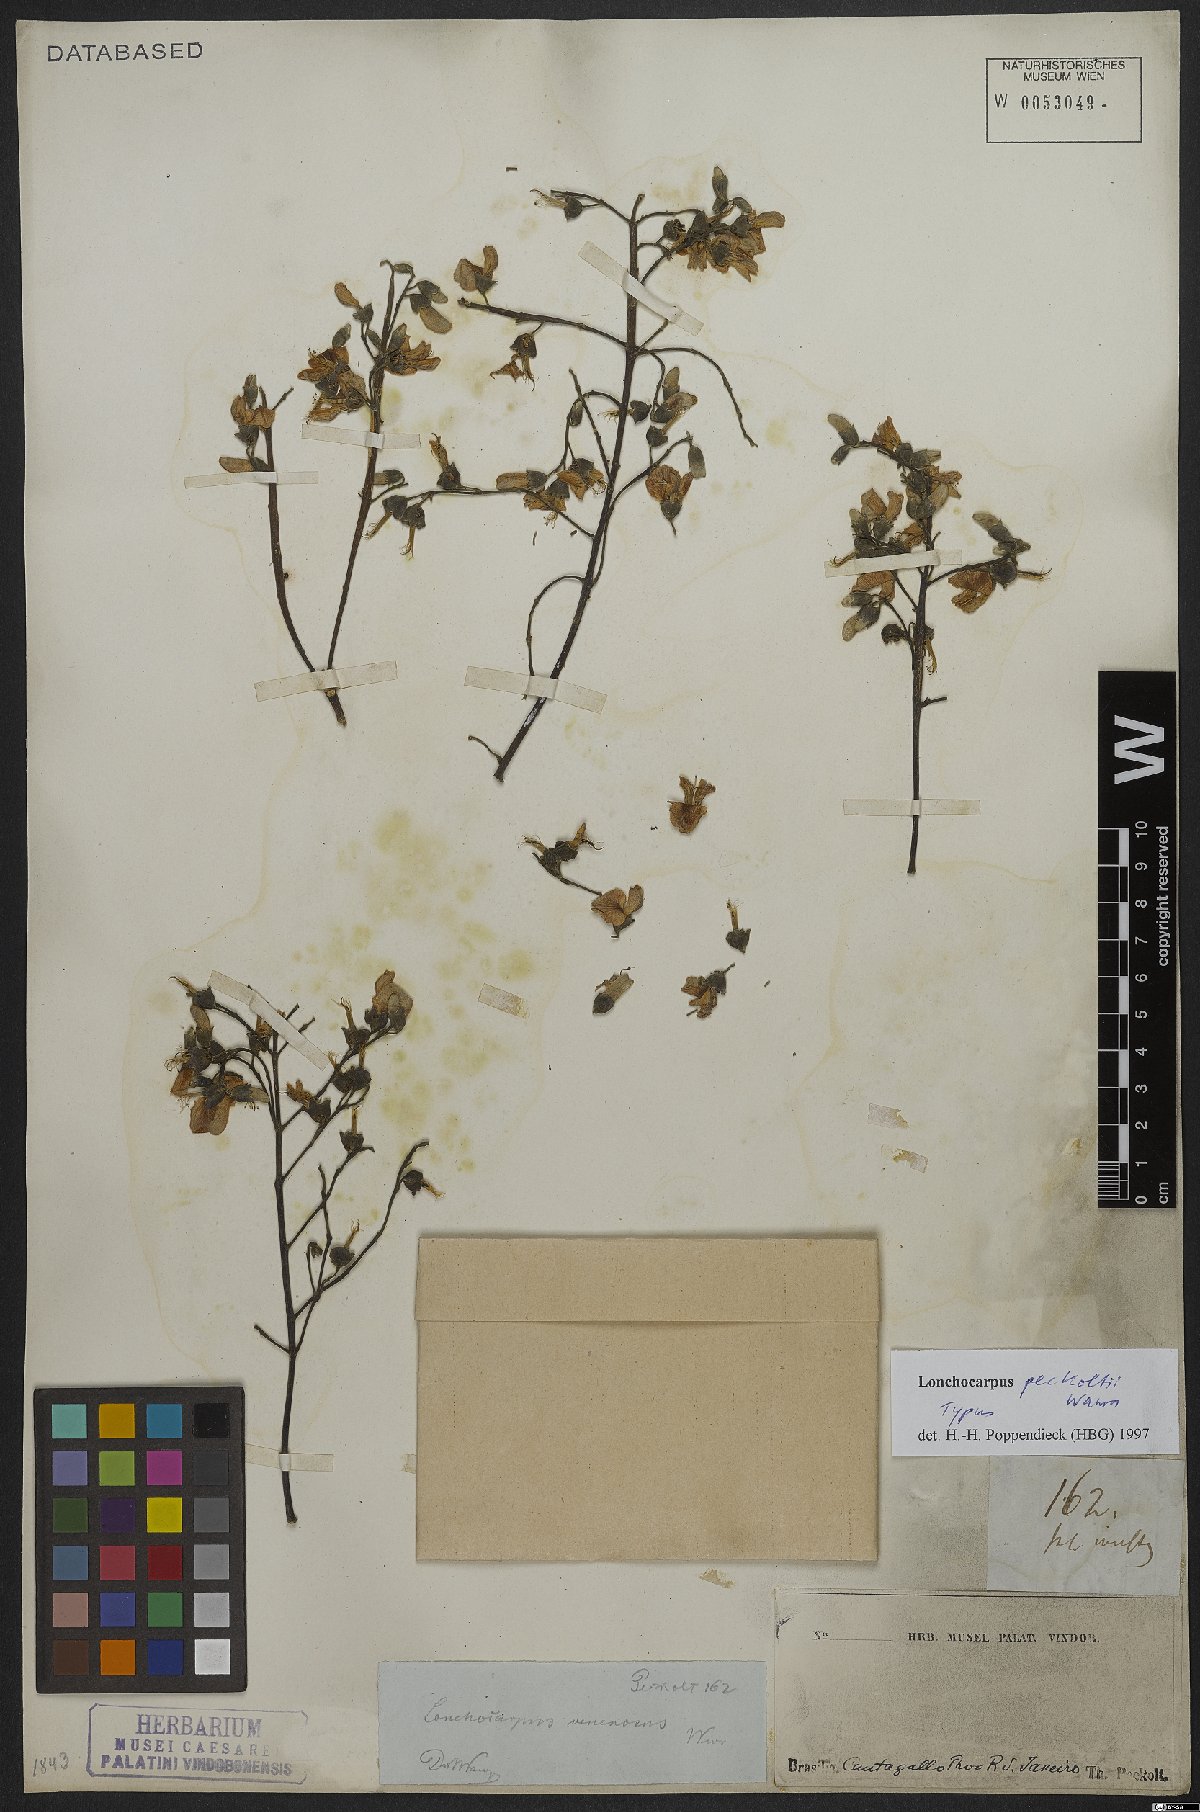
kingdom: Plantae
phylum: Tracheophyta
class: Magnoliopsida
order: Fabales
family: Fabaceae
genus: Dahlstedtia
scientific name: Dahlstedtia peckoltii
